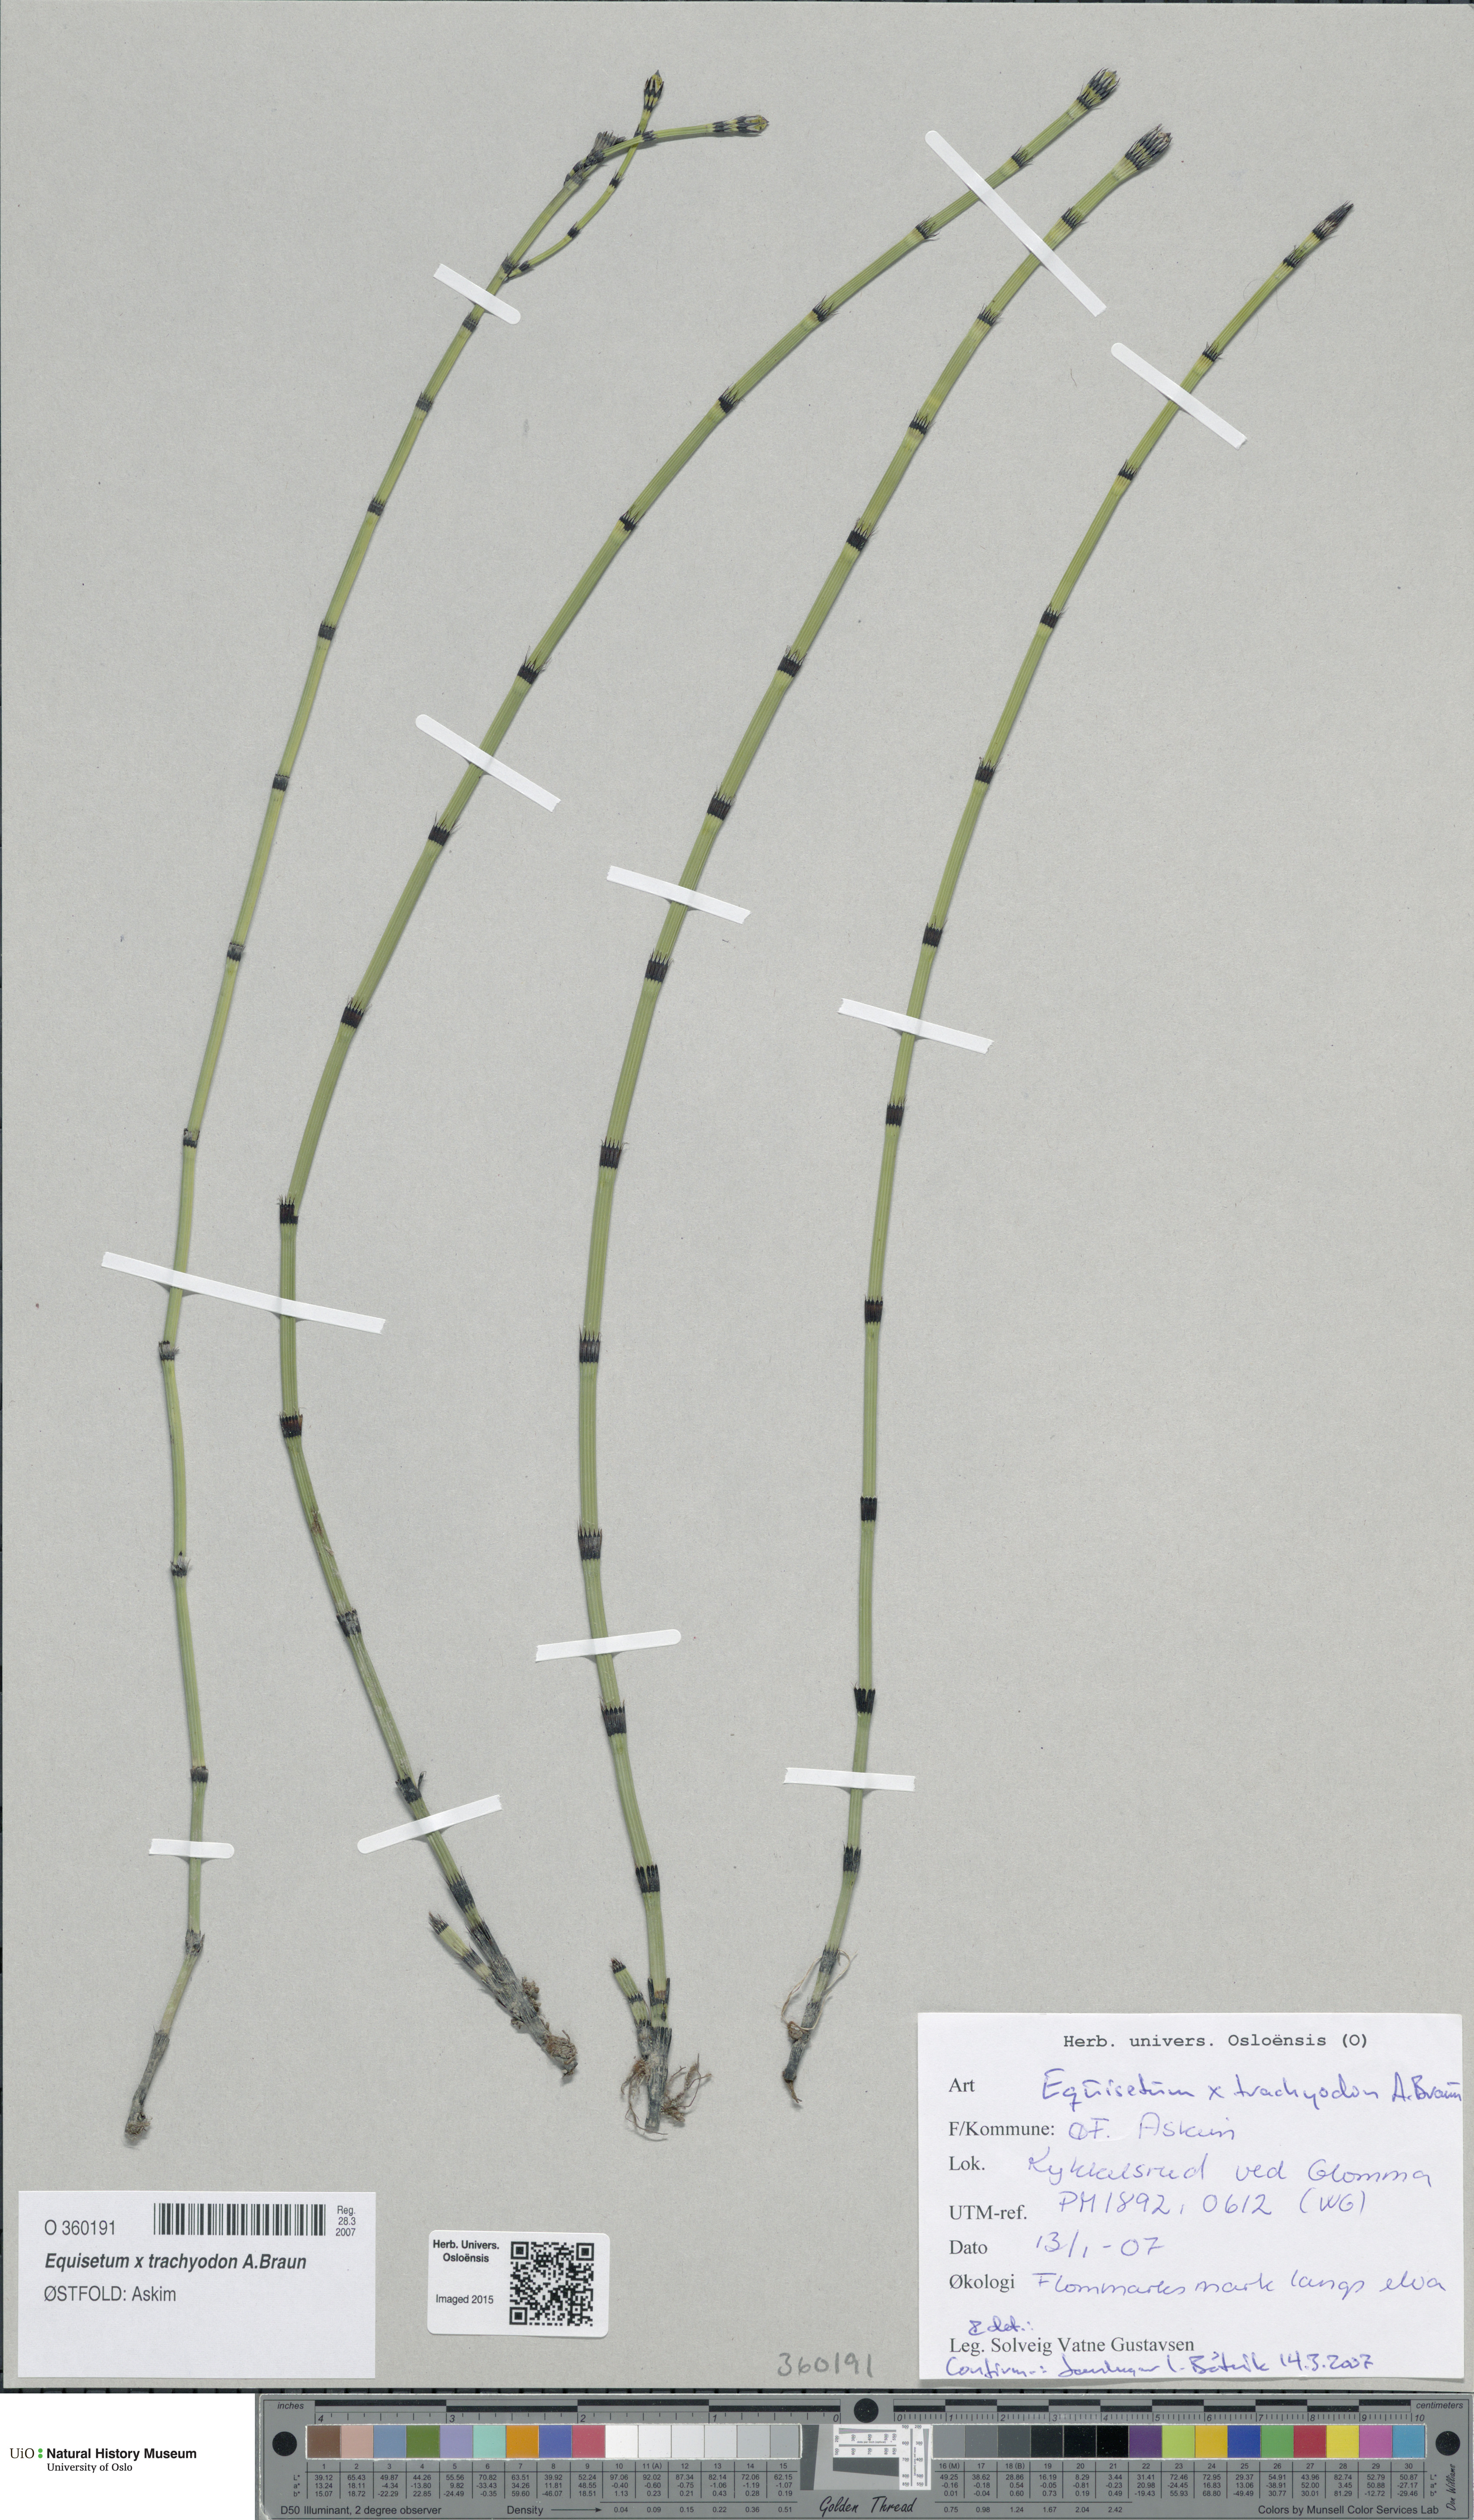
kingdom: Plantae
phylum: Tracheophyta
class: Polypodiopsida
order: Equisetales
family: Equisetaceae
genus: Equisetum
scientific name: Equisetum trachyodon
